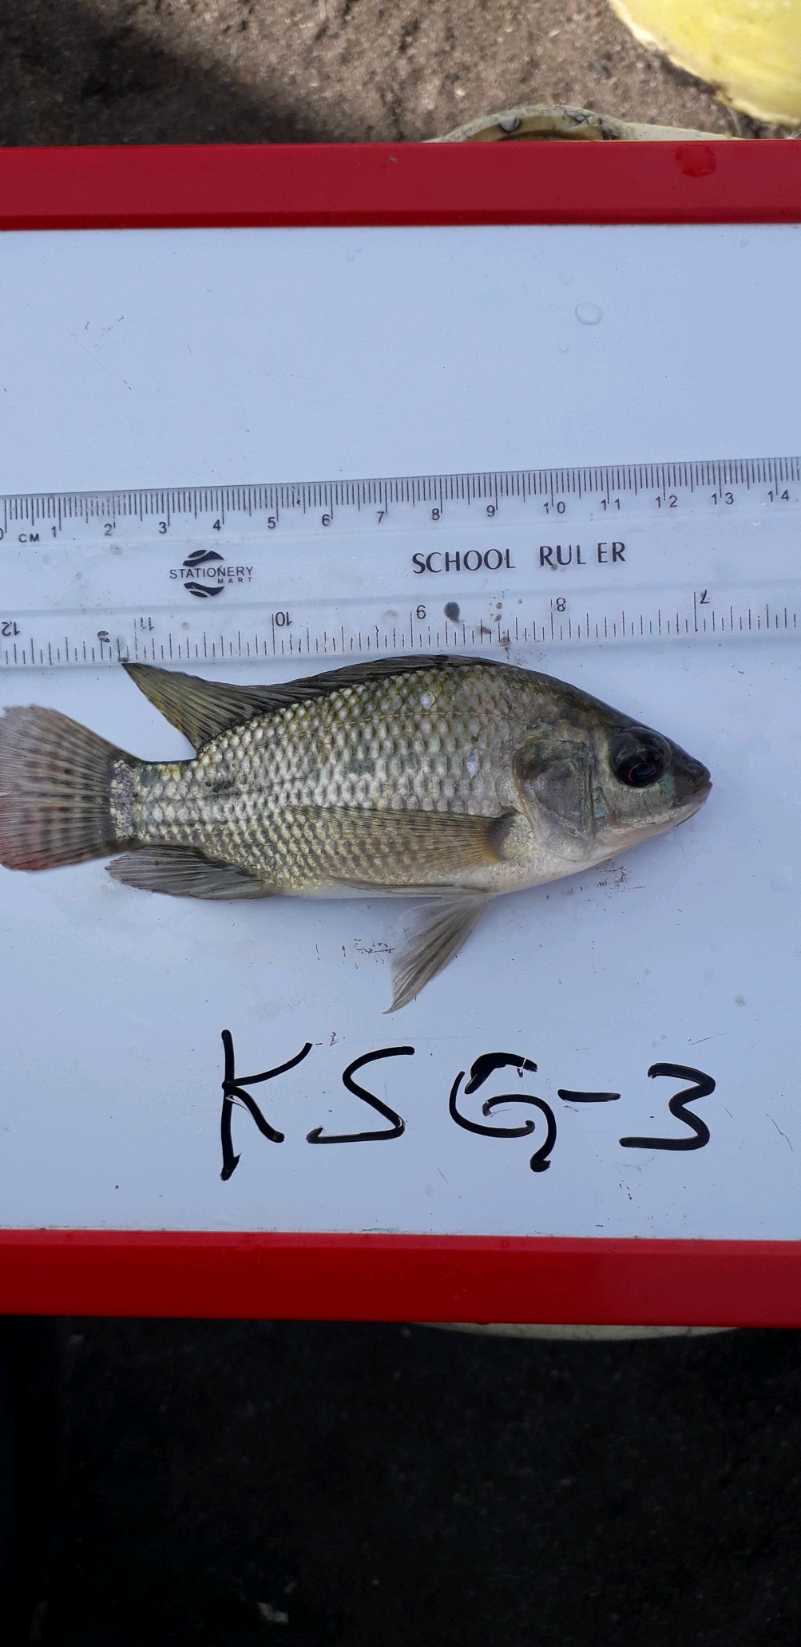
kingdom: Animalia
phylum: Chordata
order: Perciformes
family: Cichlidae
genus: Oreochromis
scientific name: Oreochromis niloticus
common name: Nile tilapia
